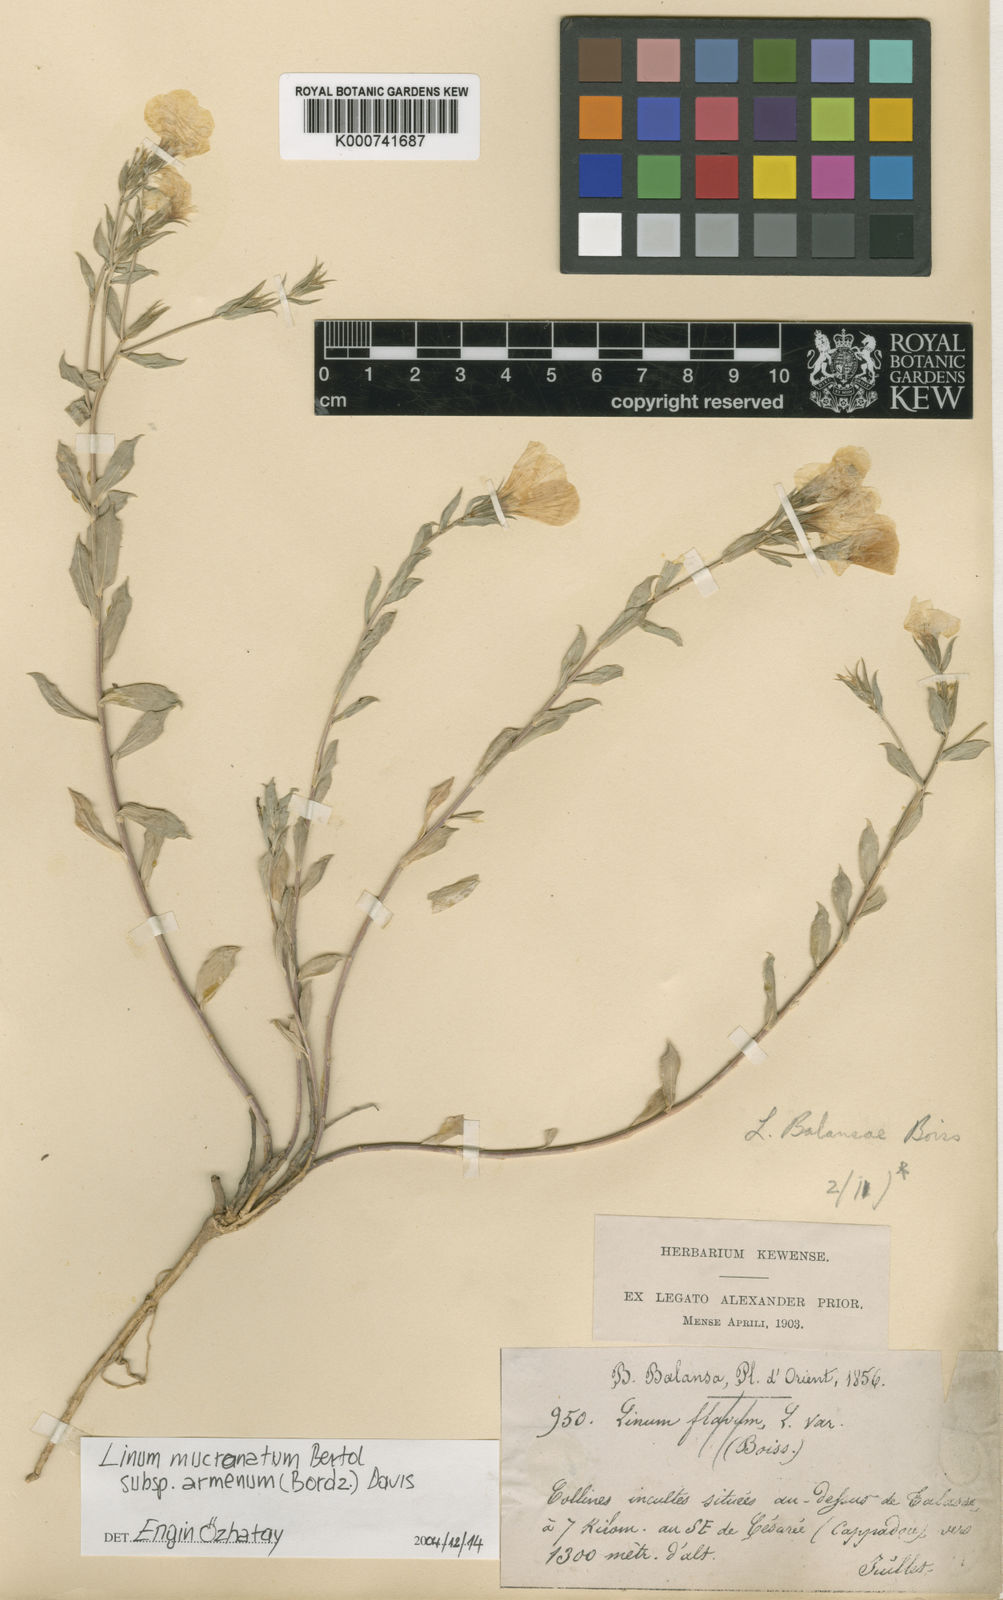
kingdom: Plantae
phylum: Tracheophyta
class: Magnoliopsida
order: Malpighiales
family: Linaceae
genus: Linum
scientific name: Linum mucronatum
